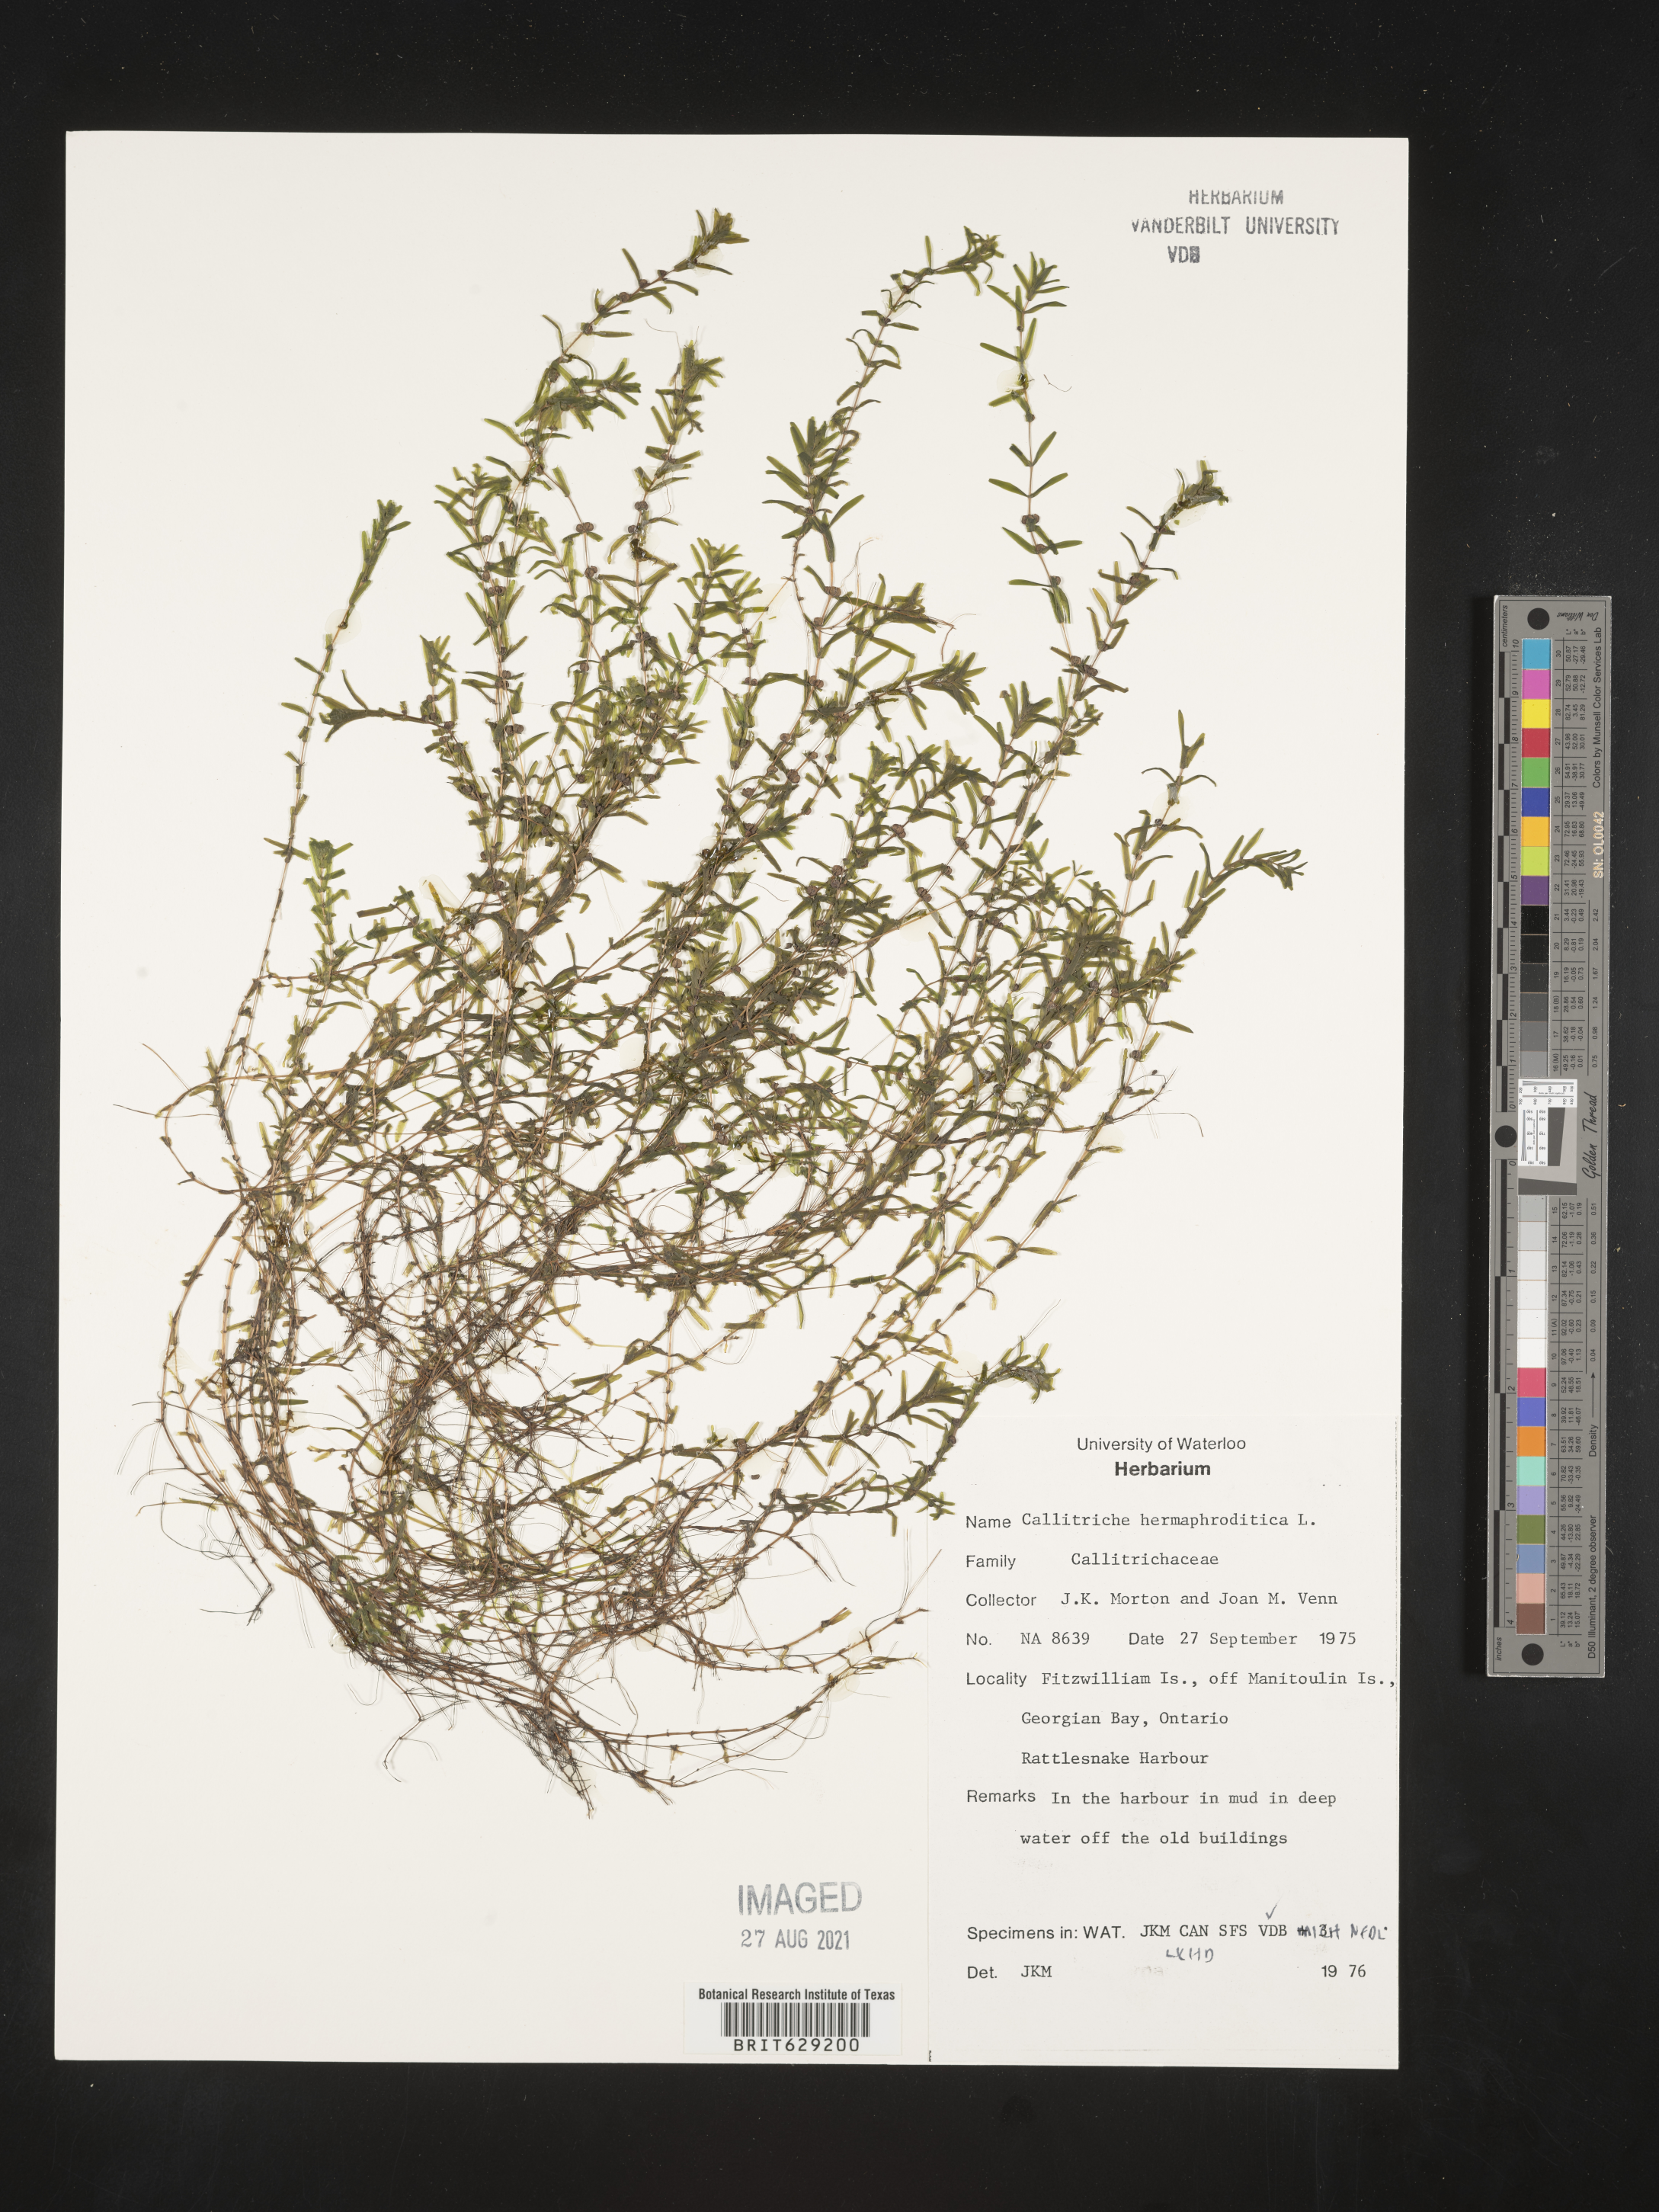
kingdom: Plantae
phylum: Tracheophyta
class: Magnoliopsida
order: Lamiales
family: Plantaginaceae
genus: Callitriche
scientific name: Callitriche
